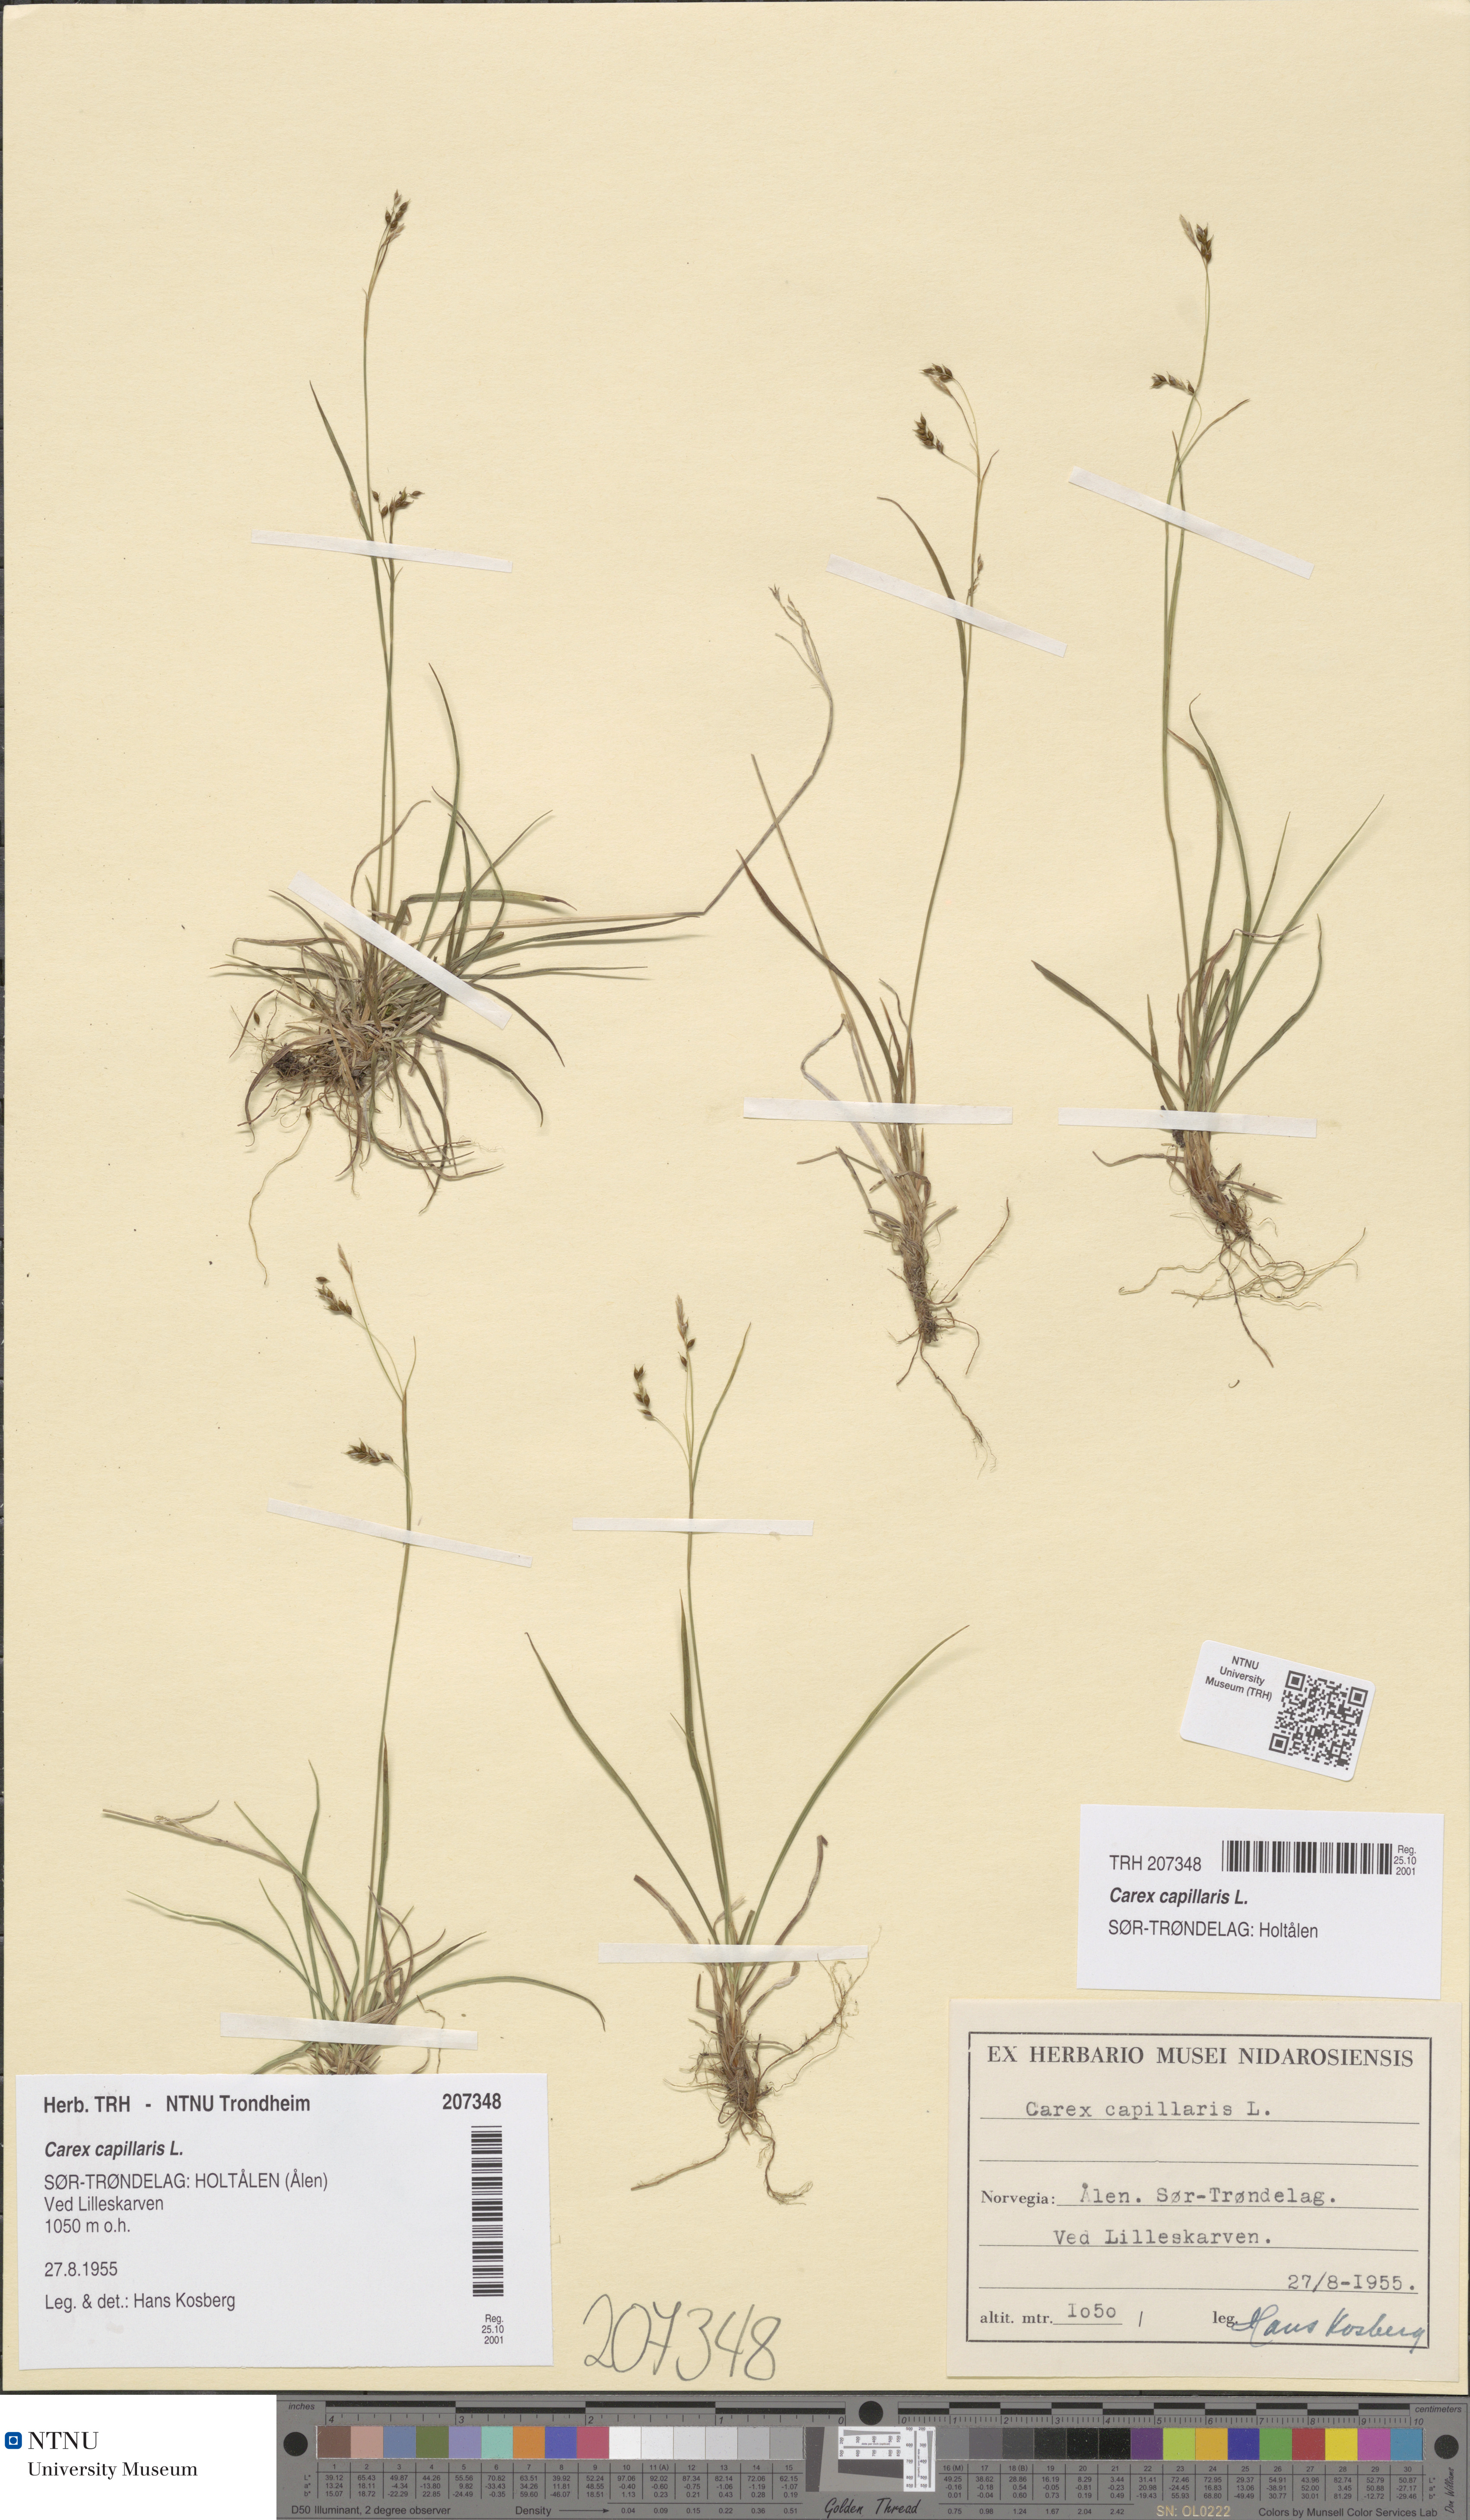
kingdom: Plantae
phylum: Tracheophyta
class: Liliopsida
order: Poales
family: Cyperaceae
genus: Carex
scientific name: Carex capillaris
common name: Hair sedge
